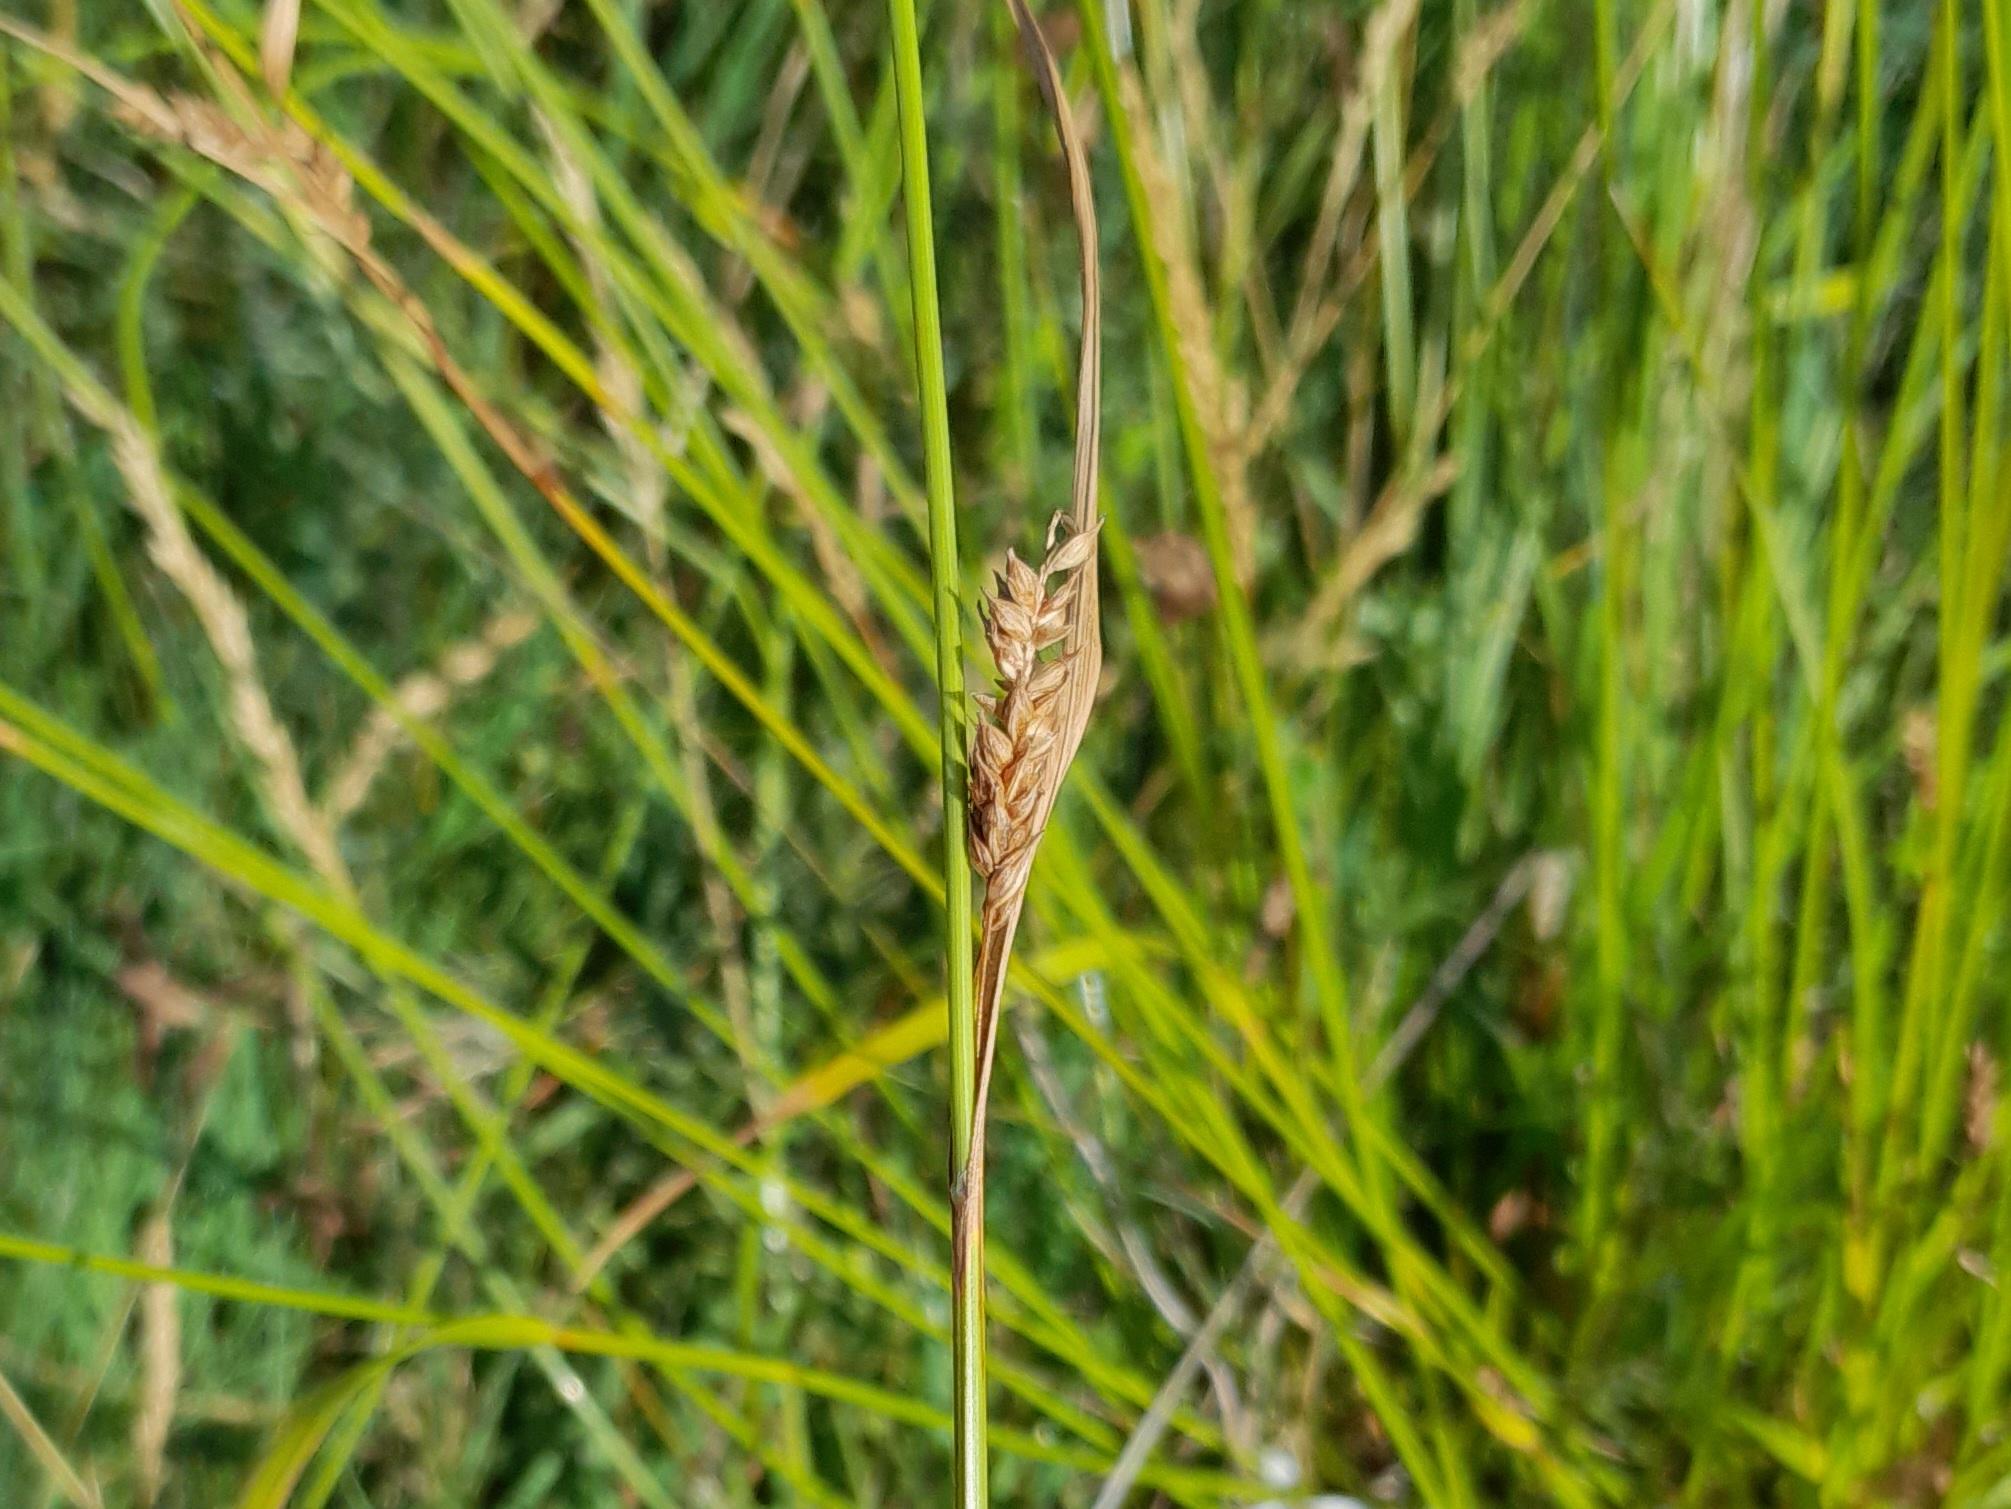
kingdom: Plantae
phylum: Tracheophyta
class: Liliopsida
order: Poales
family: Cyperaceae
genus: Carex
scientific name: Carex distans
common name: Fjernakset star
